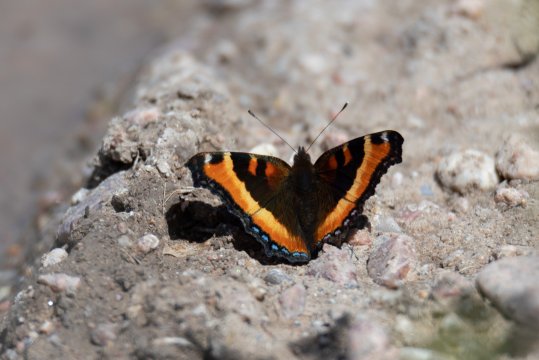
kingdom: Animalia
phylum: Arthropoda
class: Insecta
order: Lepidoptera
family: Nymphalidae
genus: Aglais
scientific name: Aglais milberti
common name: Milbert's Tortoiseshell
